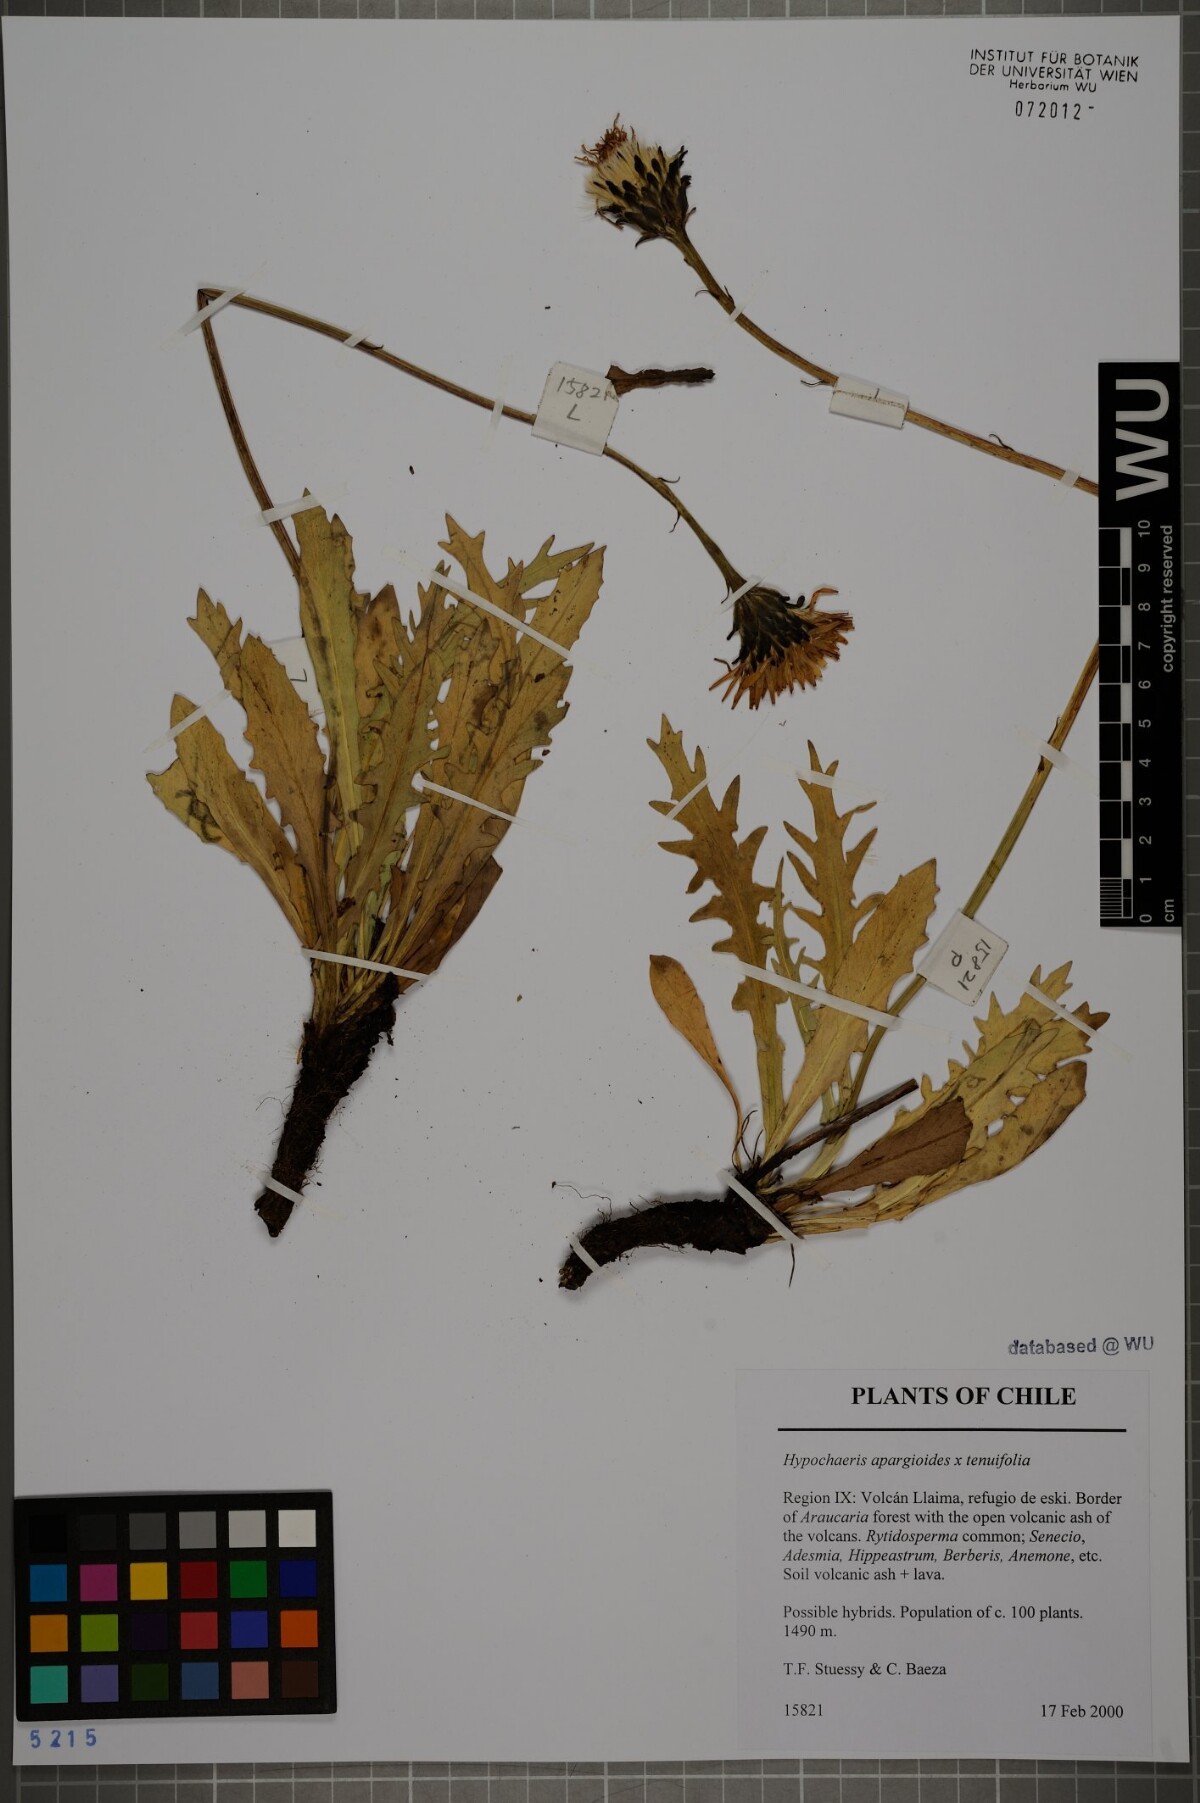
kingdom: Plantae
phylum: Tracheophyta
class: Magnoliopsida
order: Asterales
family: Asteraceae
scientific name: Asteraceae
